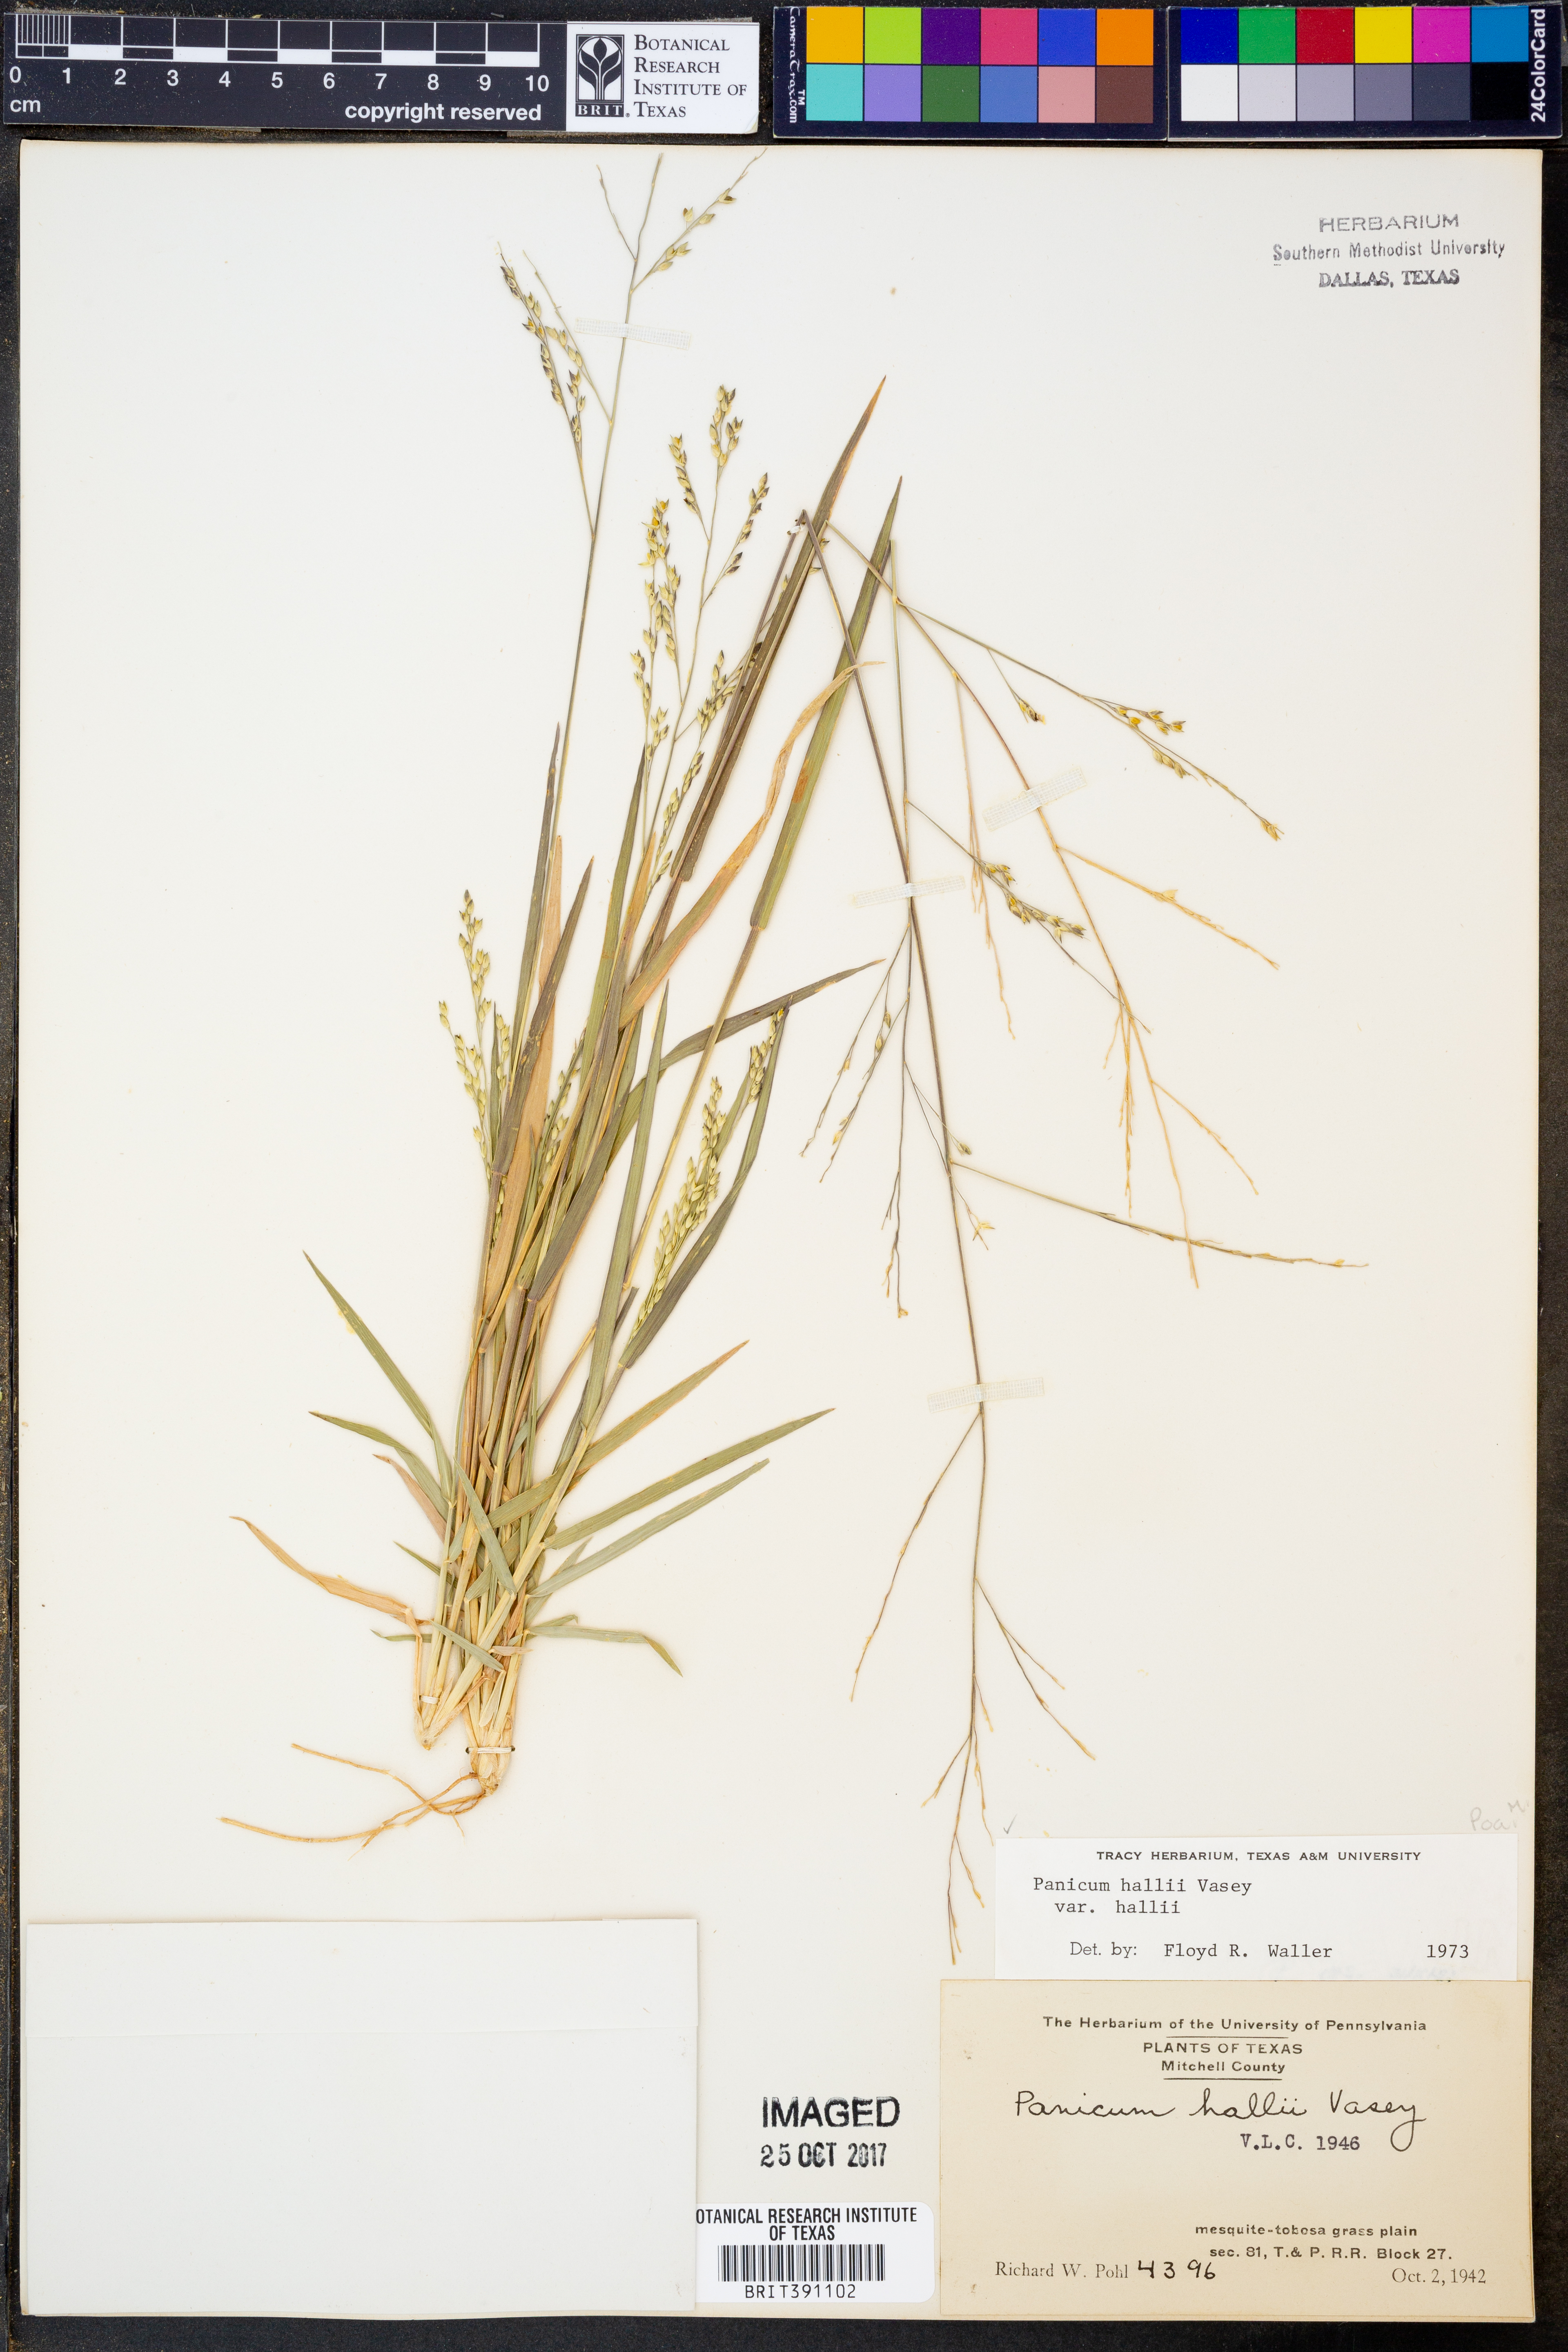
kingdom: Plantae
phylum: Tracheophyta
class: Liliopsida
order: Poales
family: Poaceae
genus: Panicum
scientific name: Panicum hallii
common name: Hall's witchgrass
